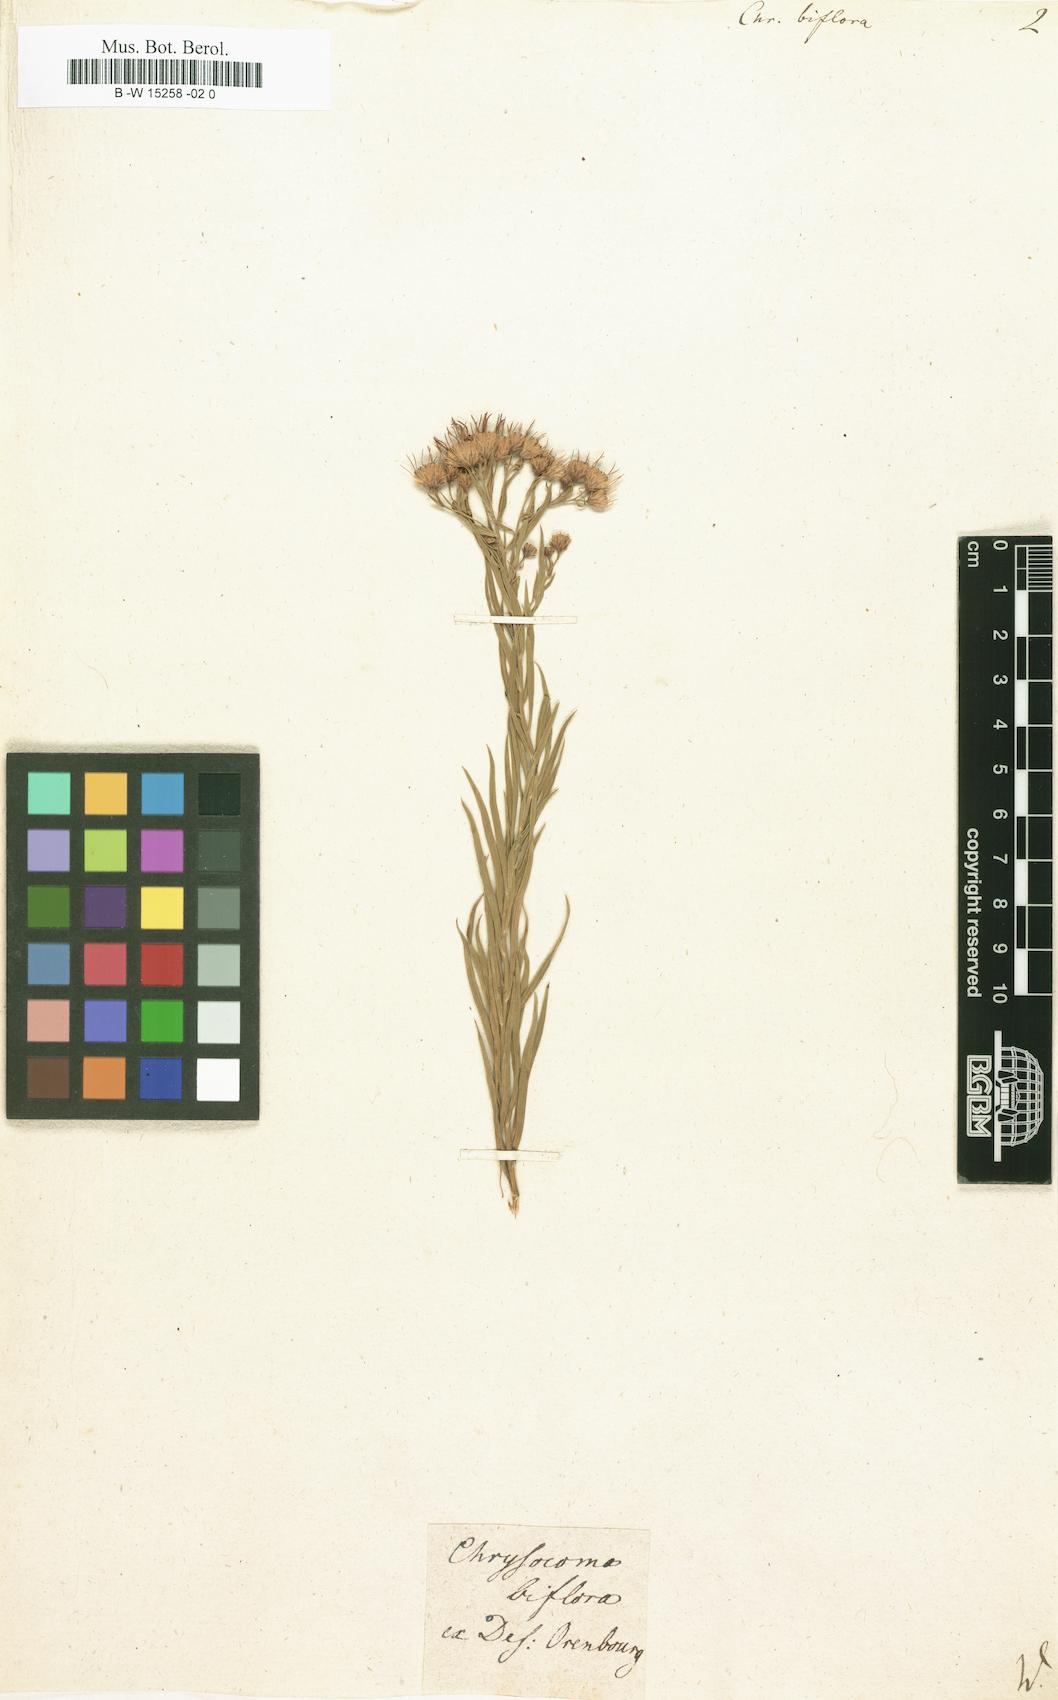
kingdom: Plantae
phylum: Tracheophyta
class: Magnoliopsida
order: Asterales
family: Asteraceae
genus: Galatella
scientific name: Galatella biflora
